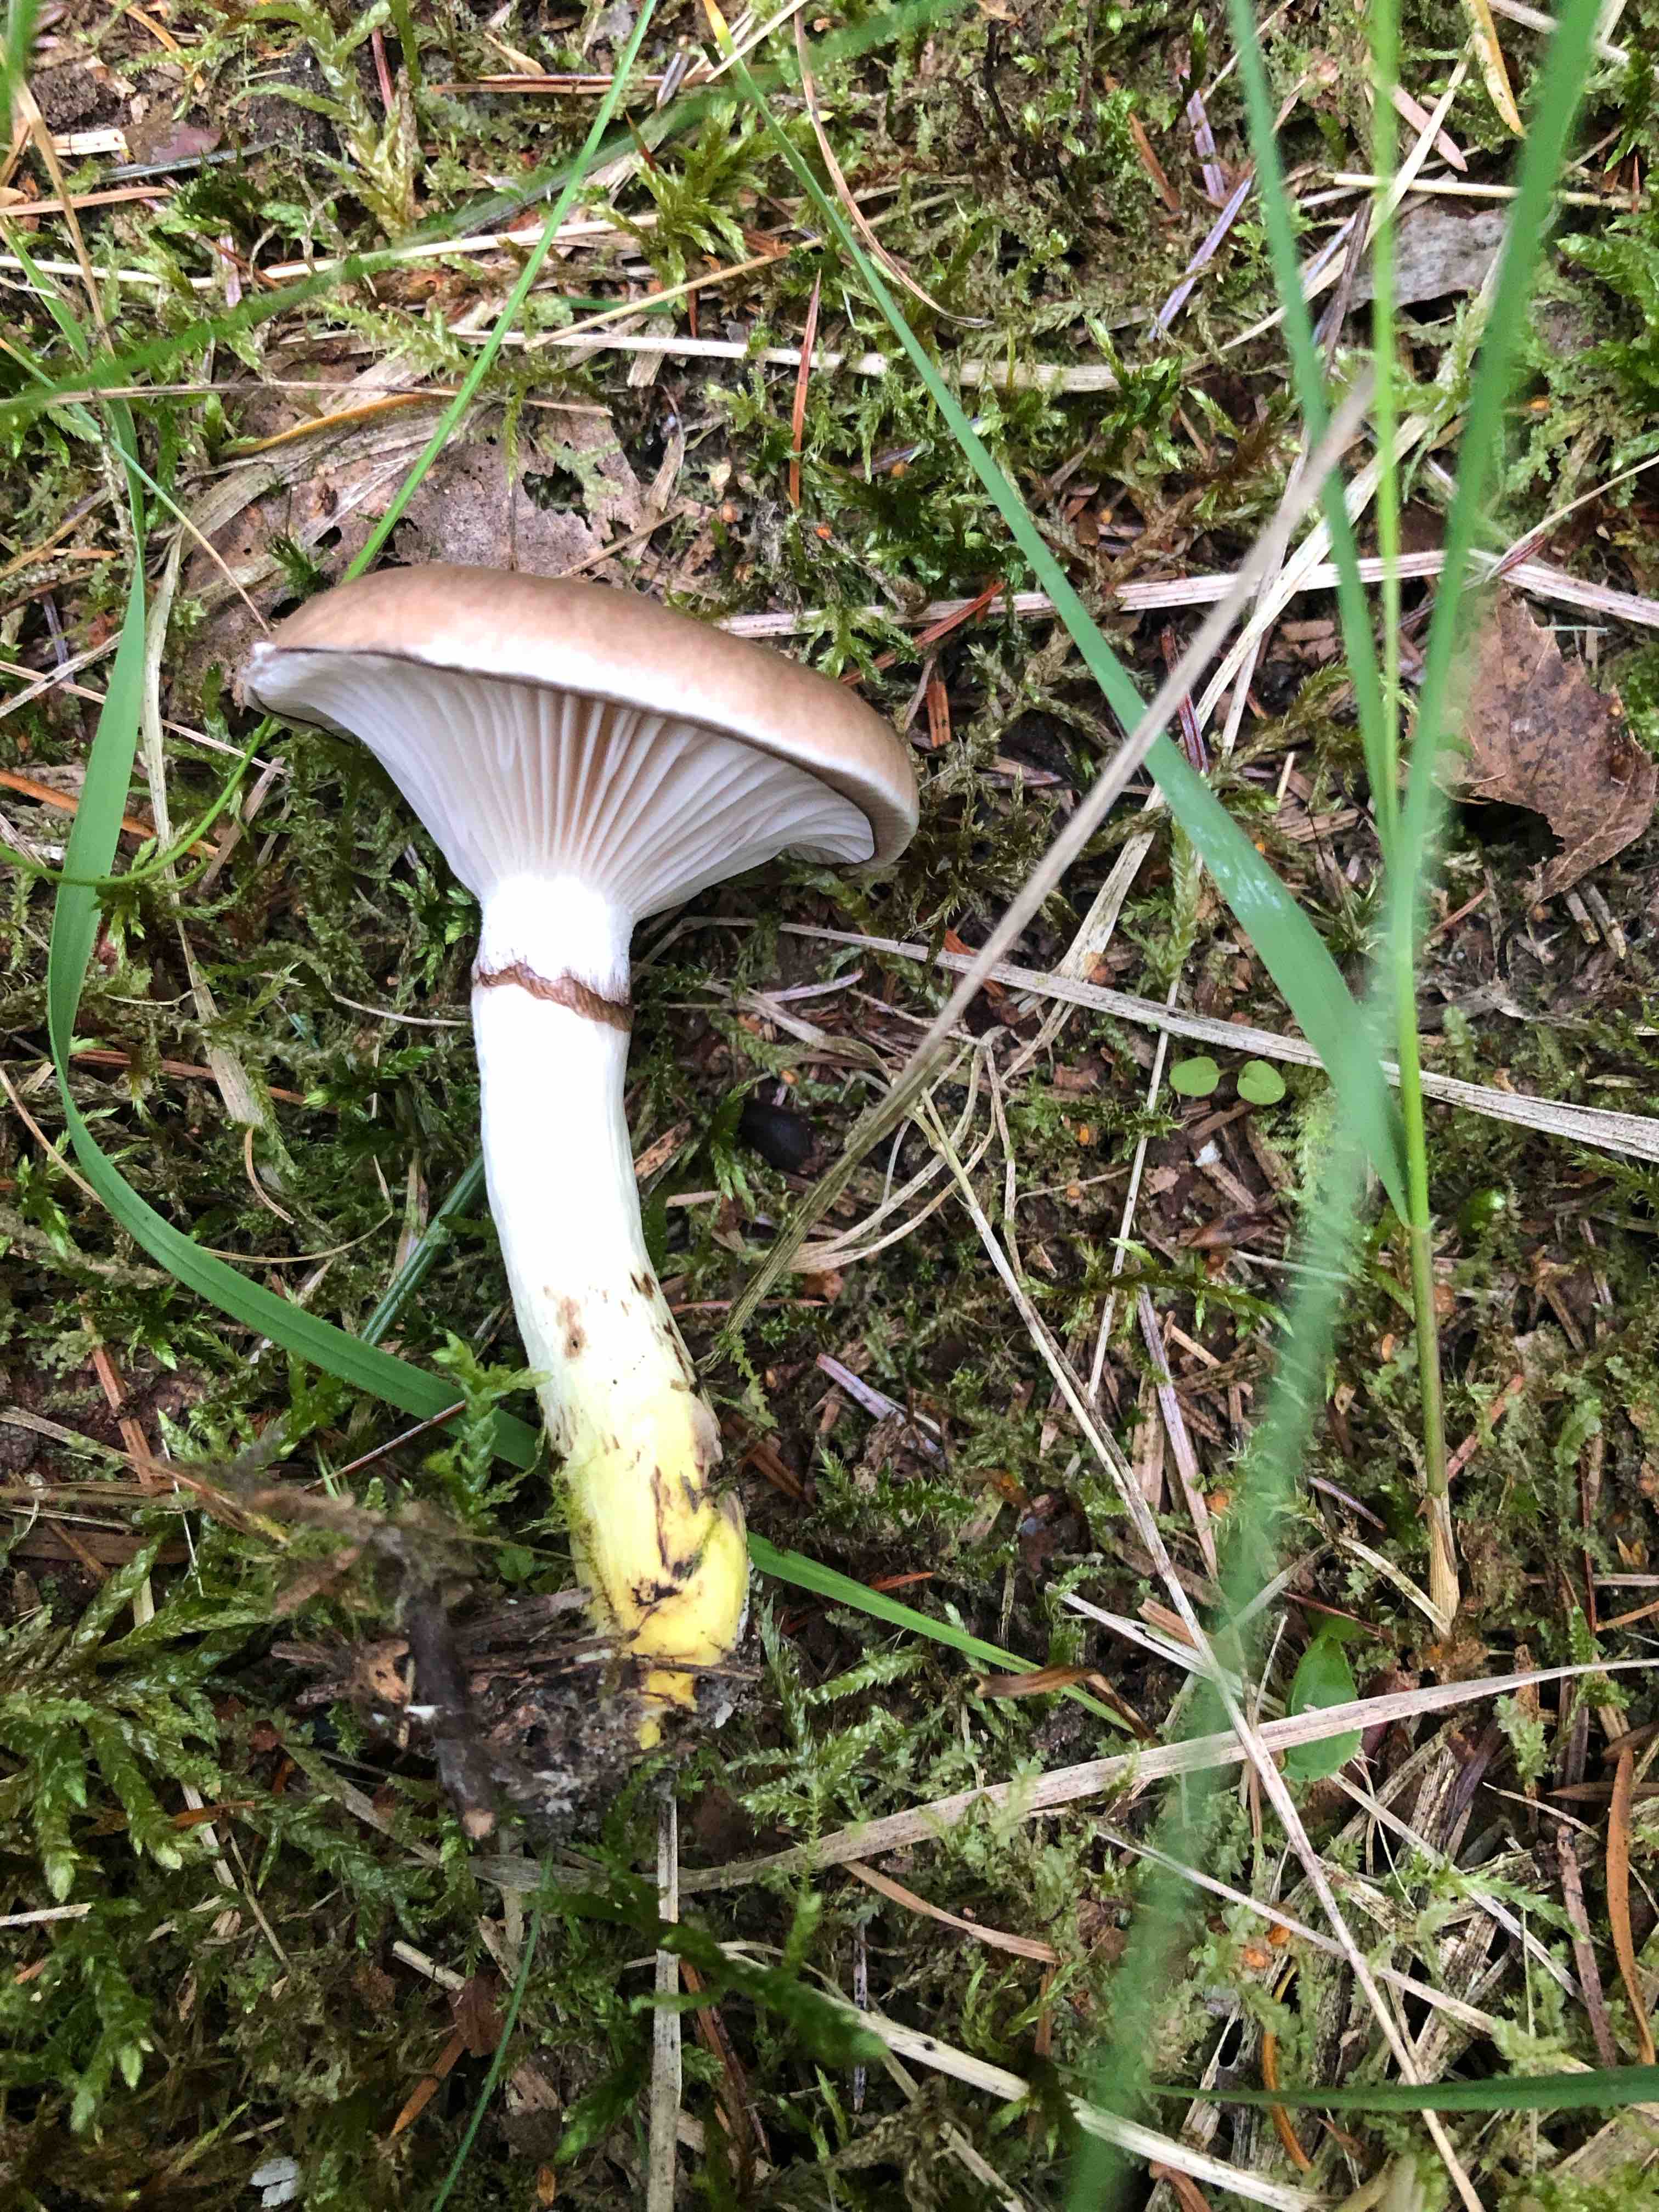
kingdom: Fungi
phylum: Basidiomycota
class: Agaricomycetes
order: Boletales
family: Gomphidiaceae
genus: Gomphidius
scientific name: Gomphidius glutinosus
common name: grå slimslør
